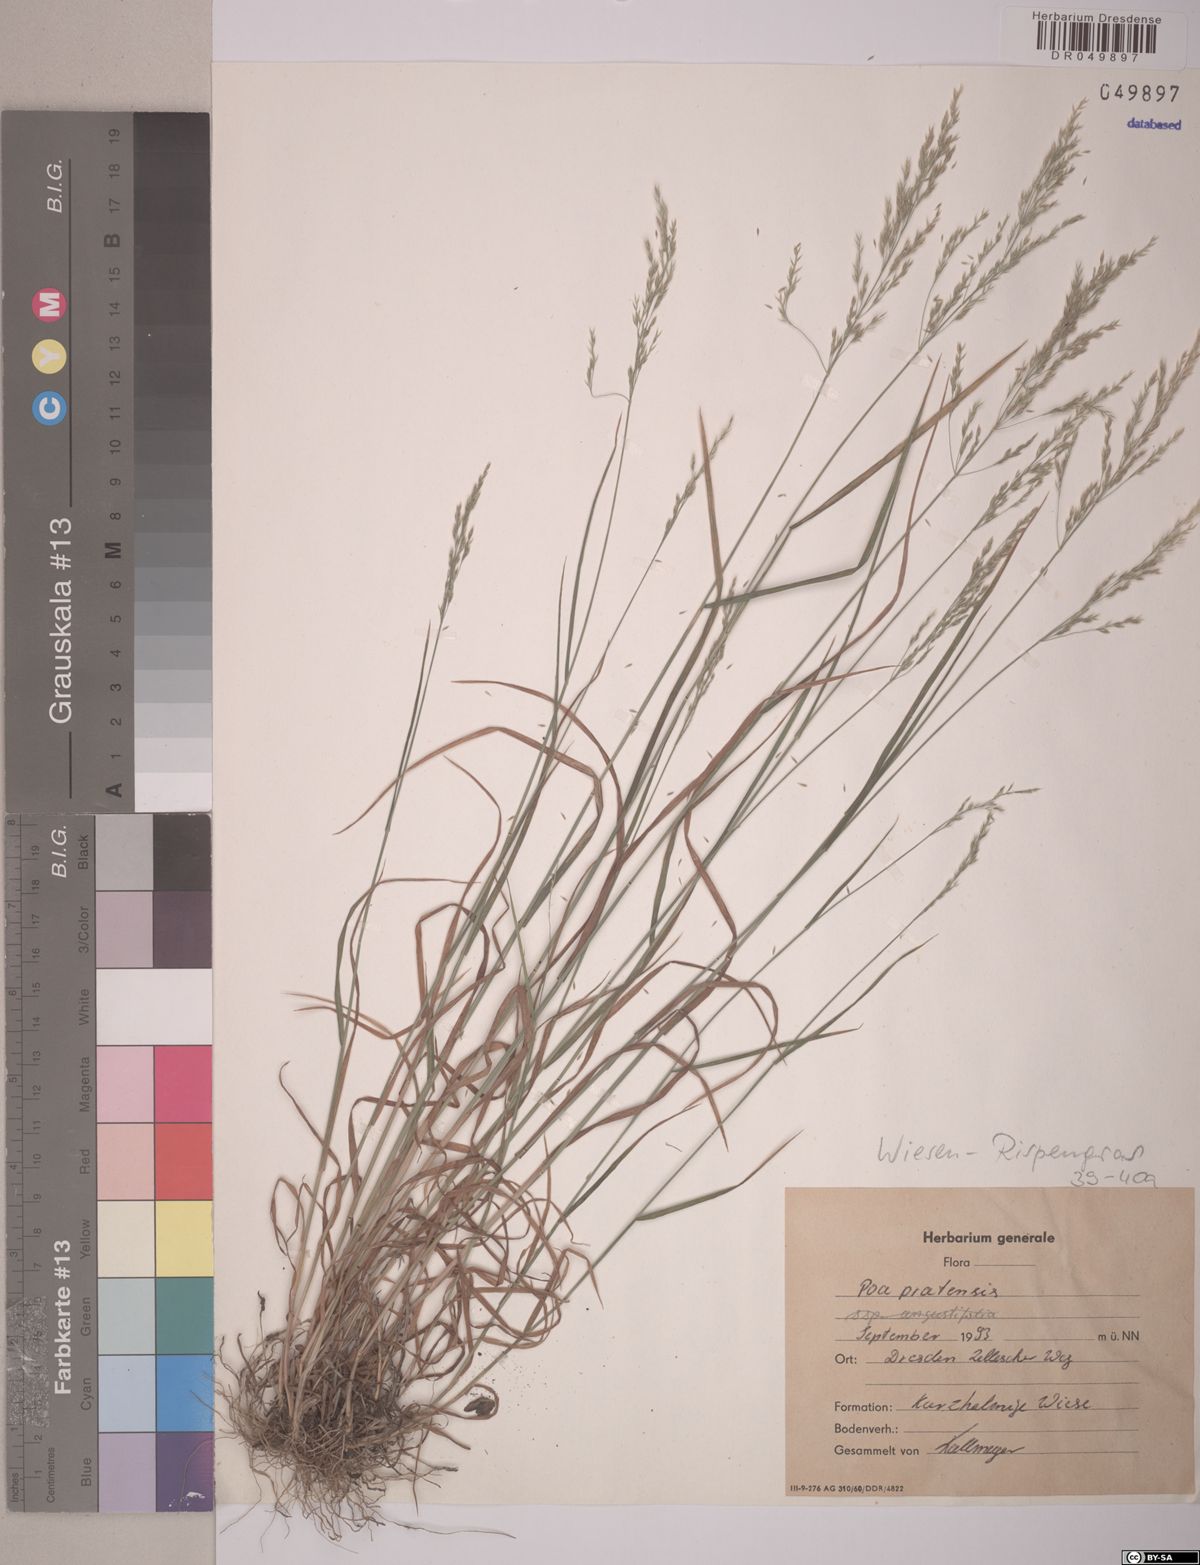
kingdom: Plantae
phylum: Tracheophyta
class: Liliopsida
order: Poales
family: Poaceae
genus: Poa
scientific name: Poa pratensis
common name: Kentucky bluegrass
